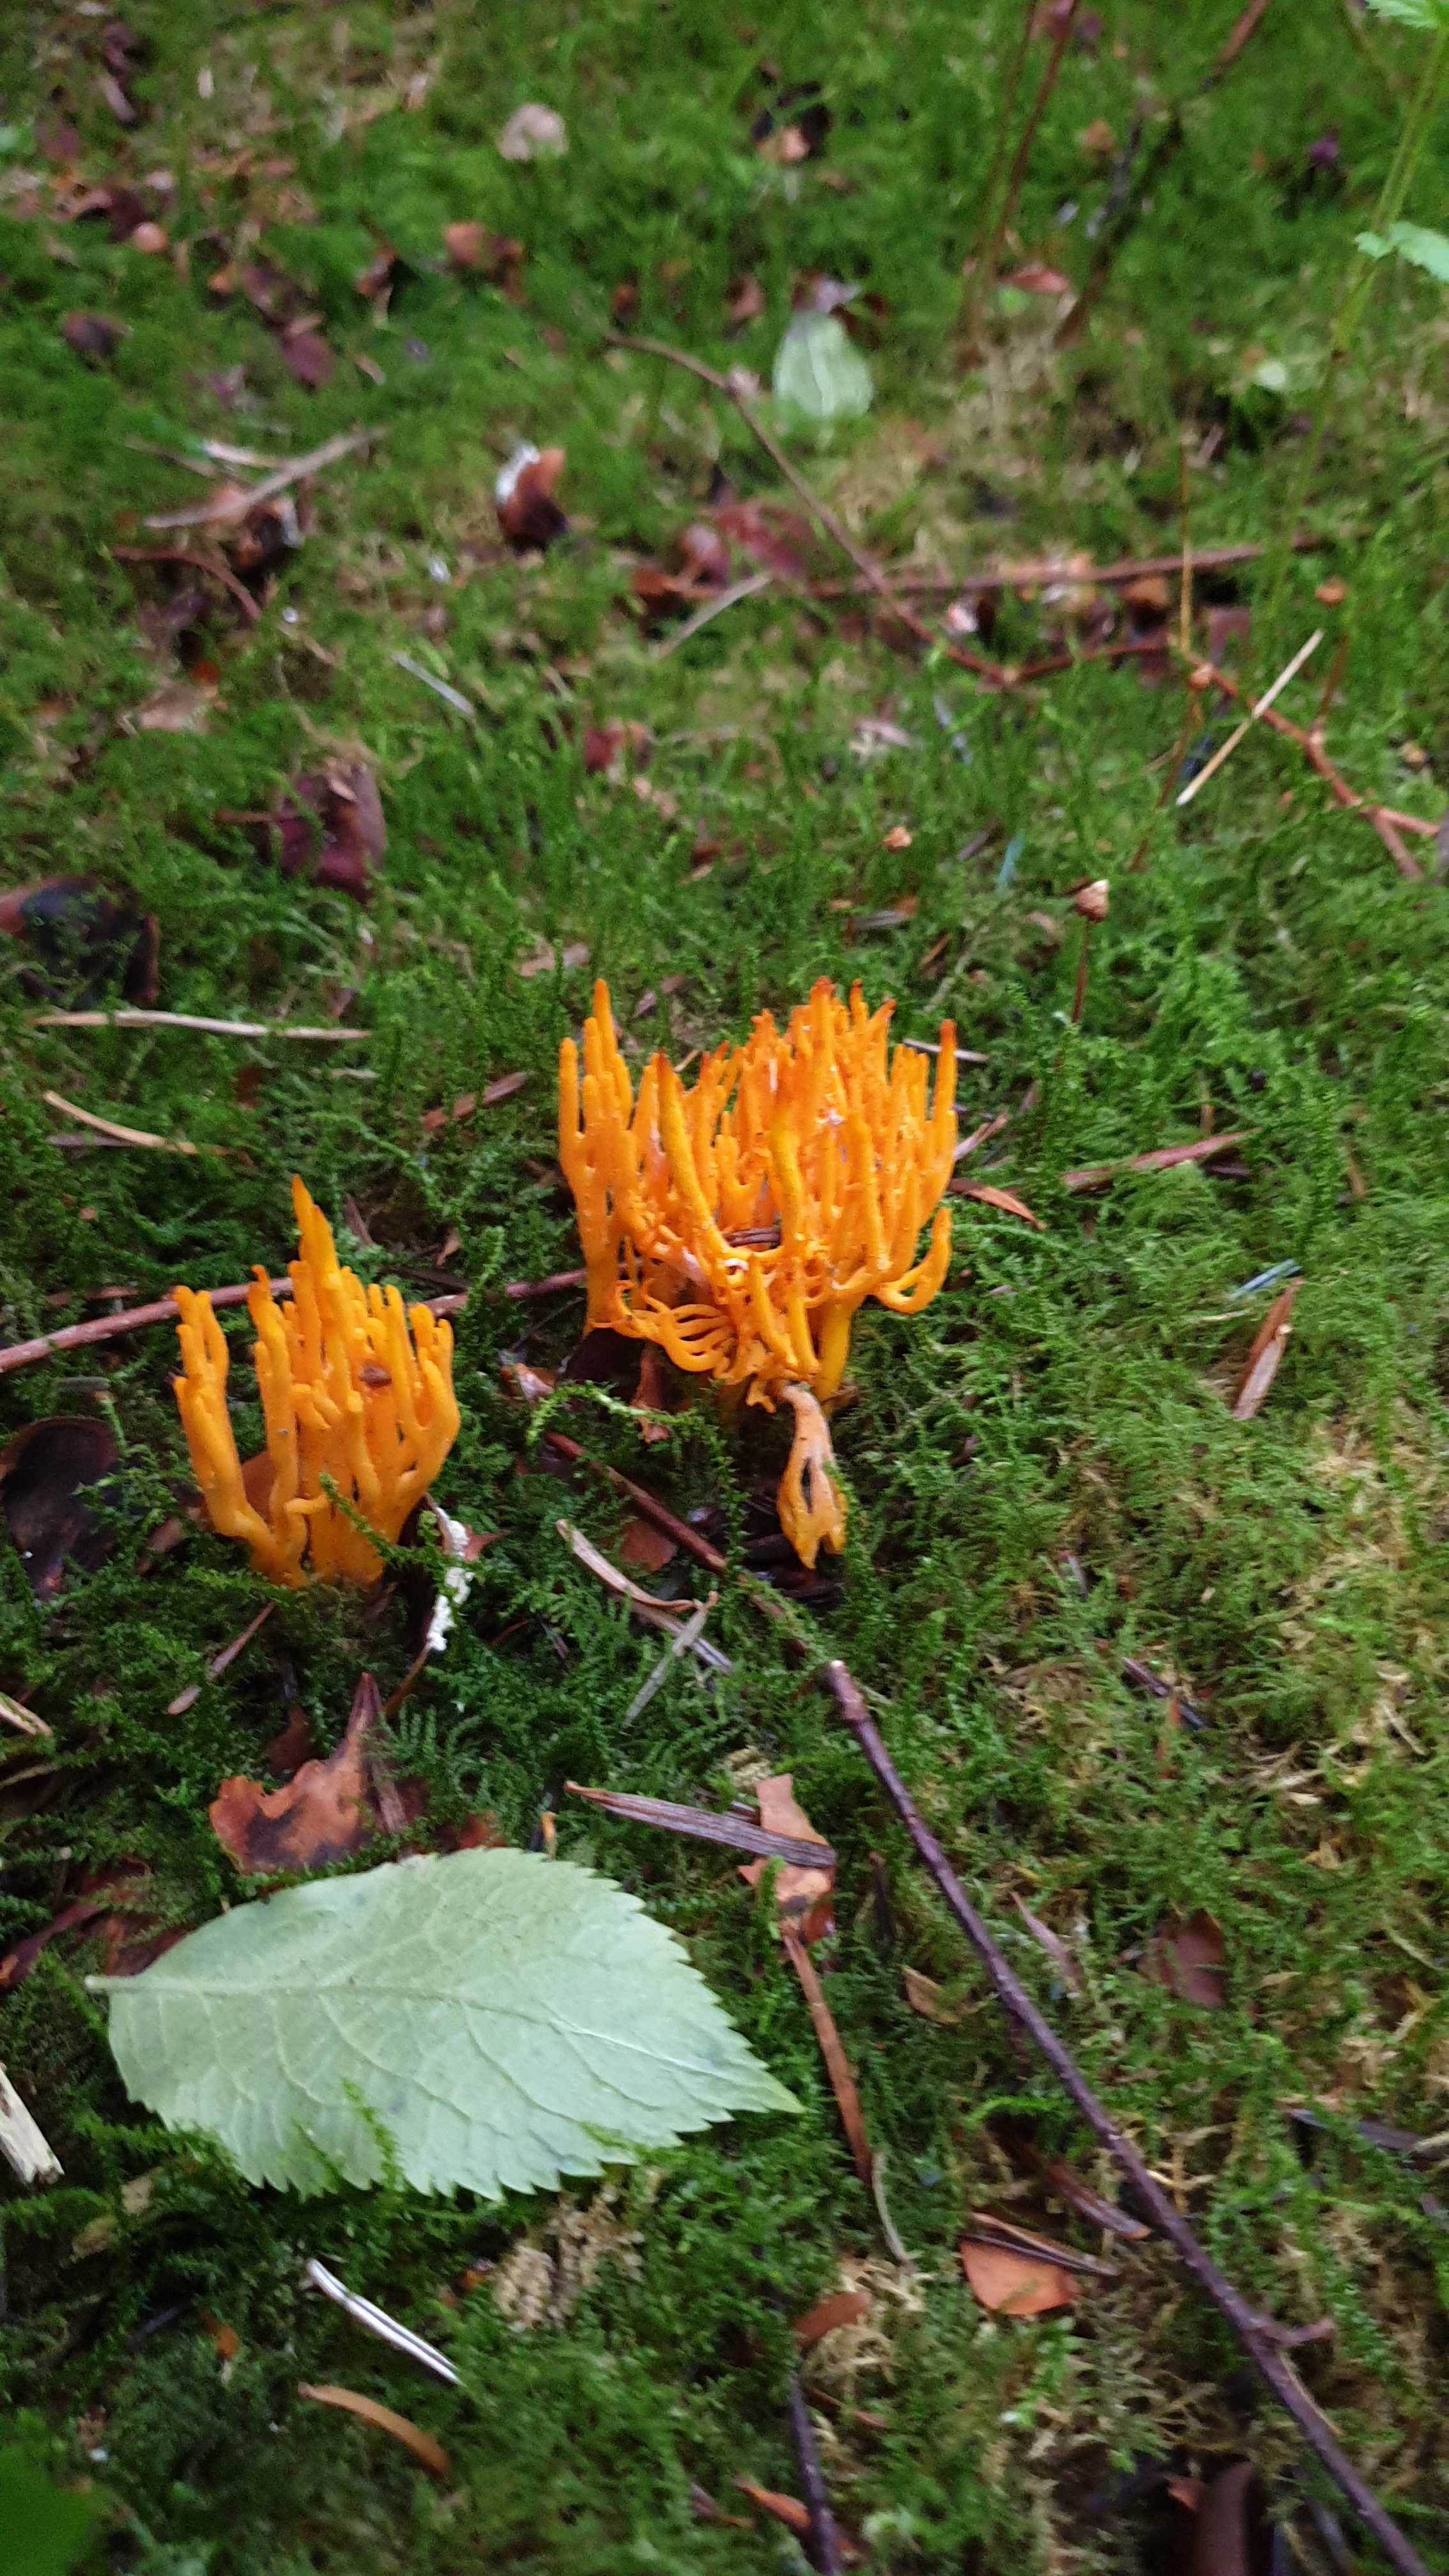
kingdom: Fungi
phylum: Basidiomycota
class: Dacrymycetes
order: Dacrymycetales
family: Dacrymycetaceae
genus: Calocera
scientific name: Calocera viscosa
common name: almindelig guldgaffel
